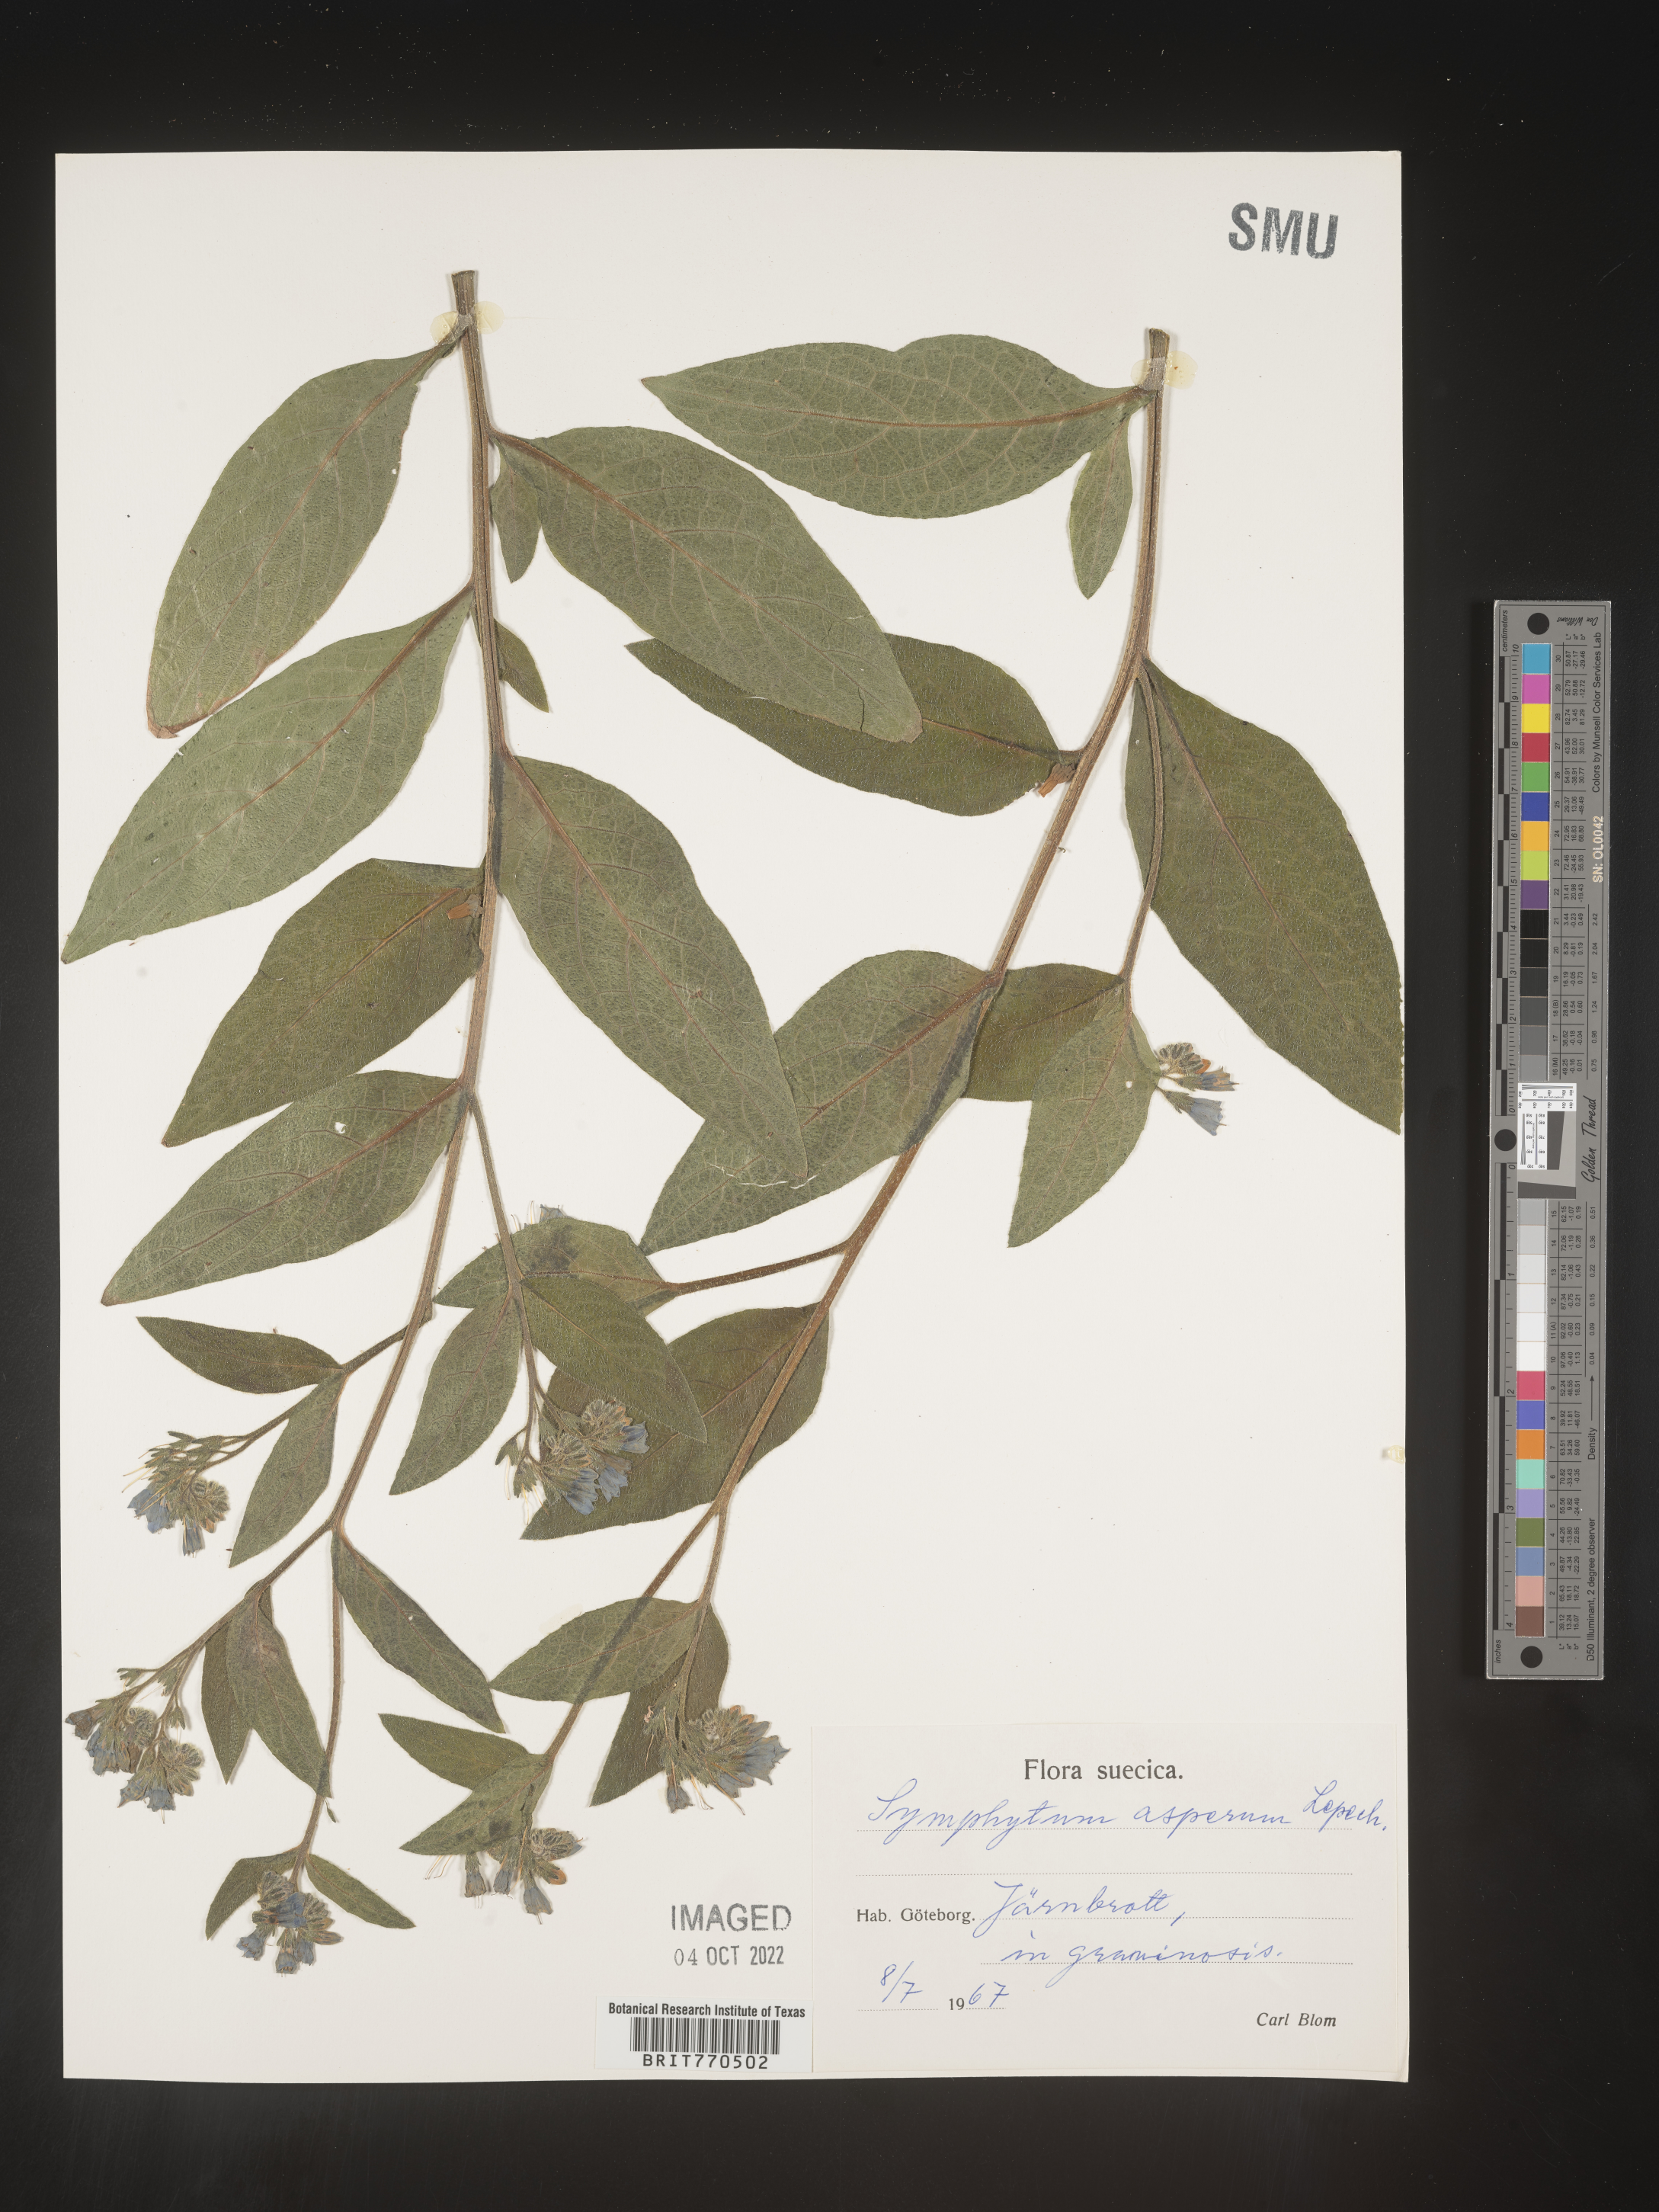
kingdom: Plantae
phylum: Tracheophyta
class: Magnoliopsida
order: Boraginales
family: Boraginaceae
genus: Symphytum
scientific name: Symphytum
